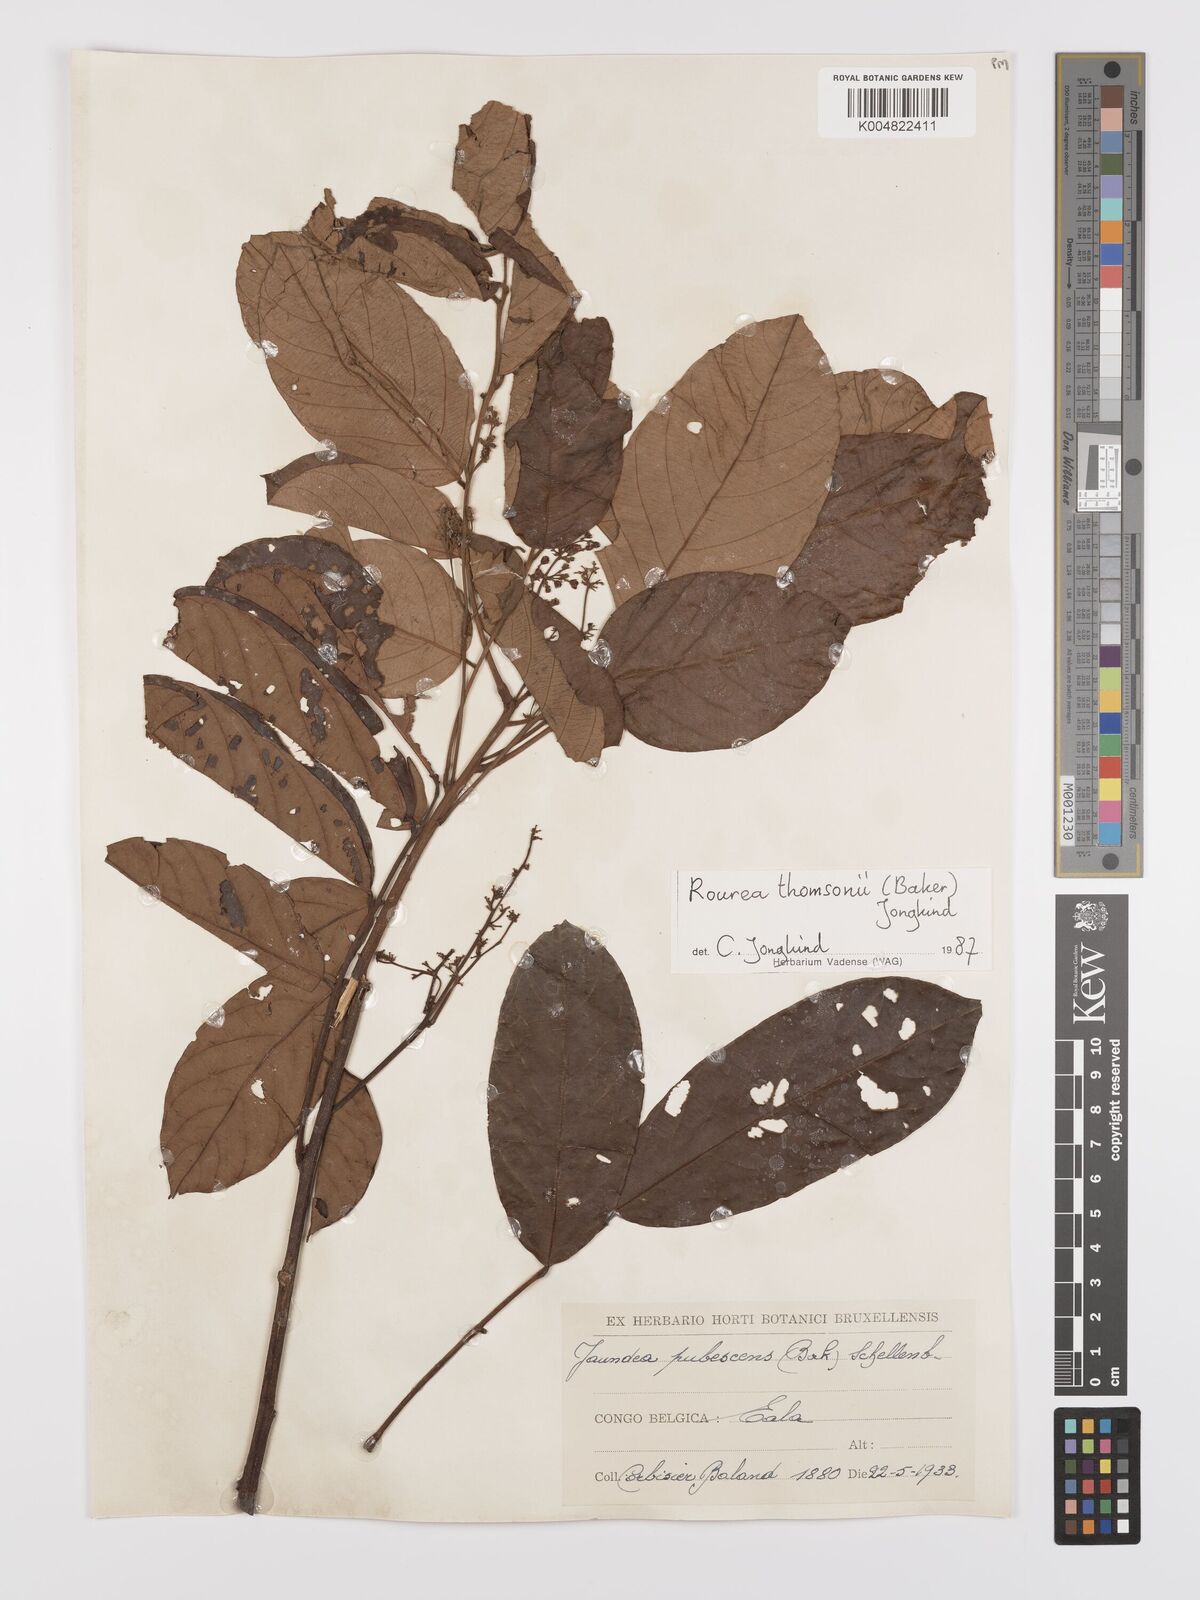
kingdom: Plantae
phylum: Tracheophyta
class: Magnoliopsida
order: Oxalidales
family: Connaraceae
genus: Rourea
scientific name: Rourea pubescens
